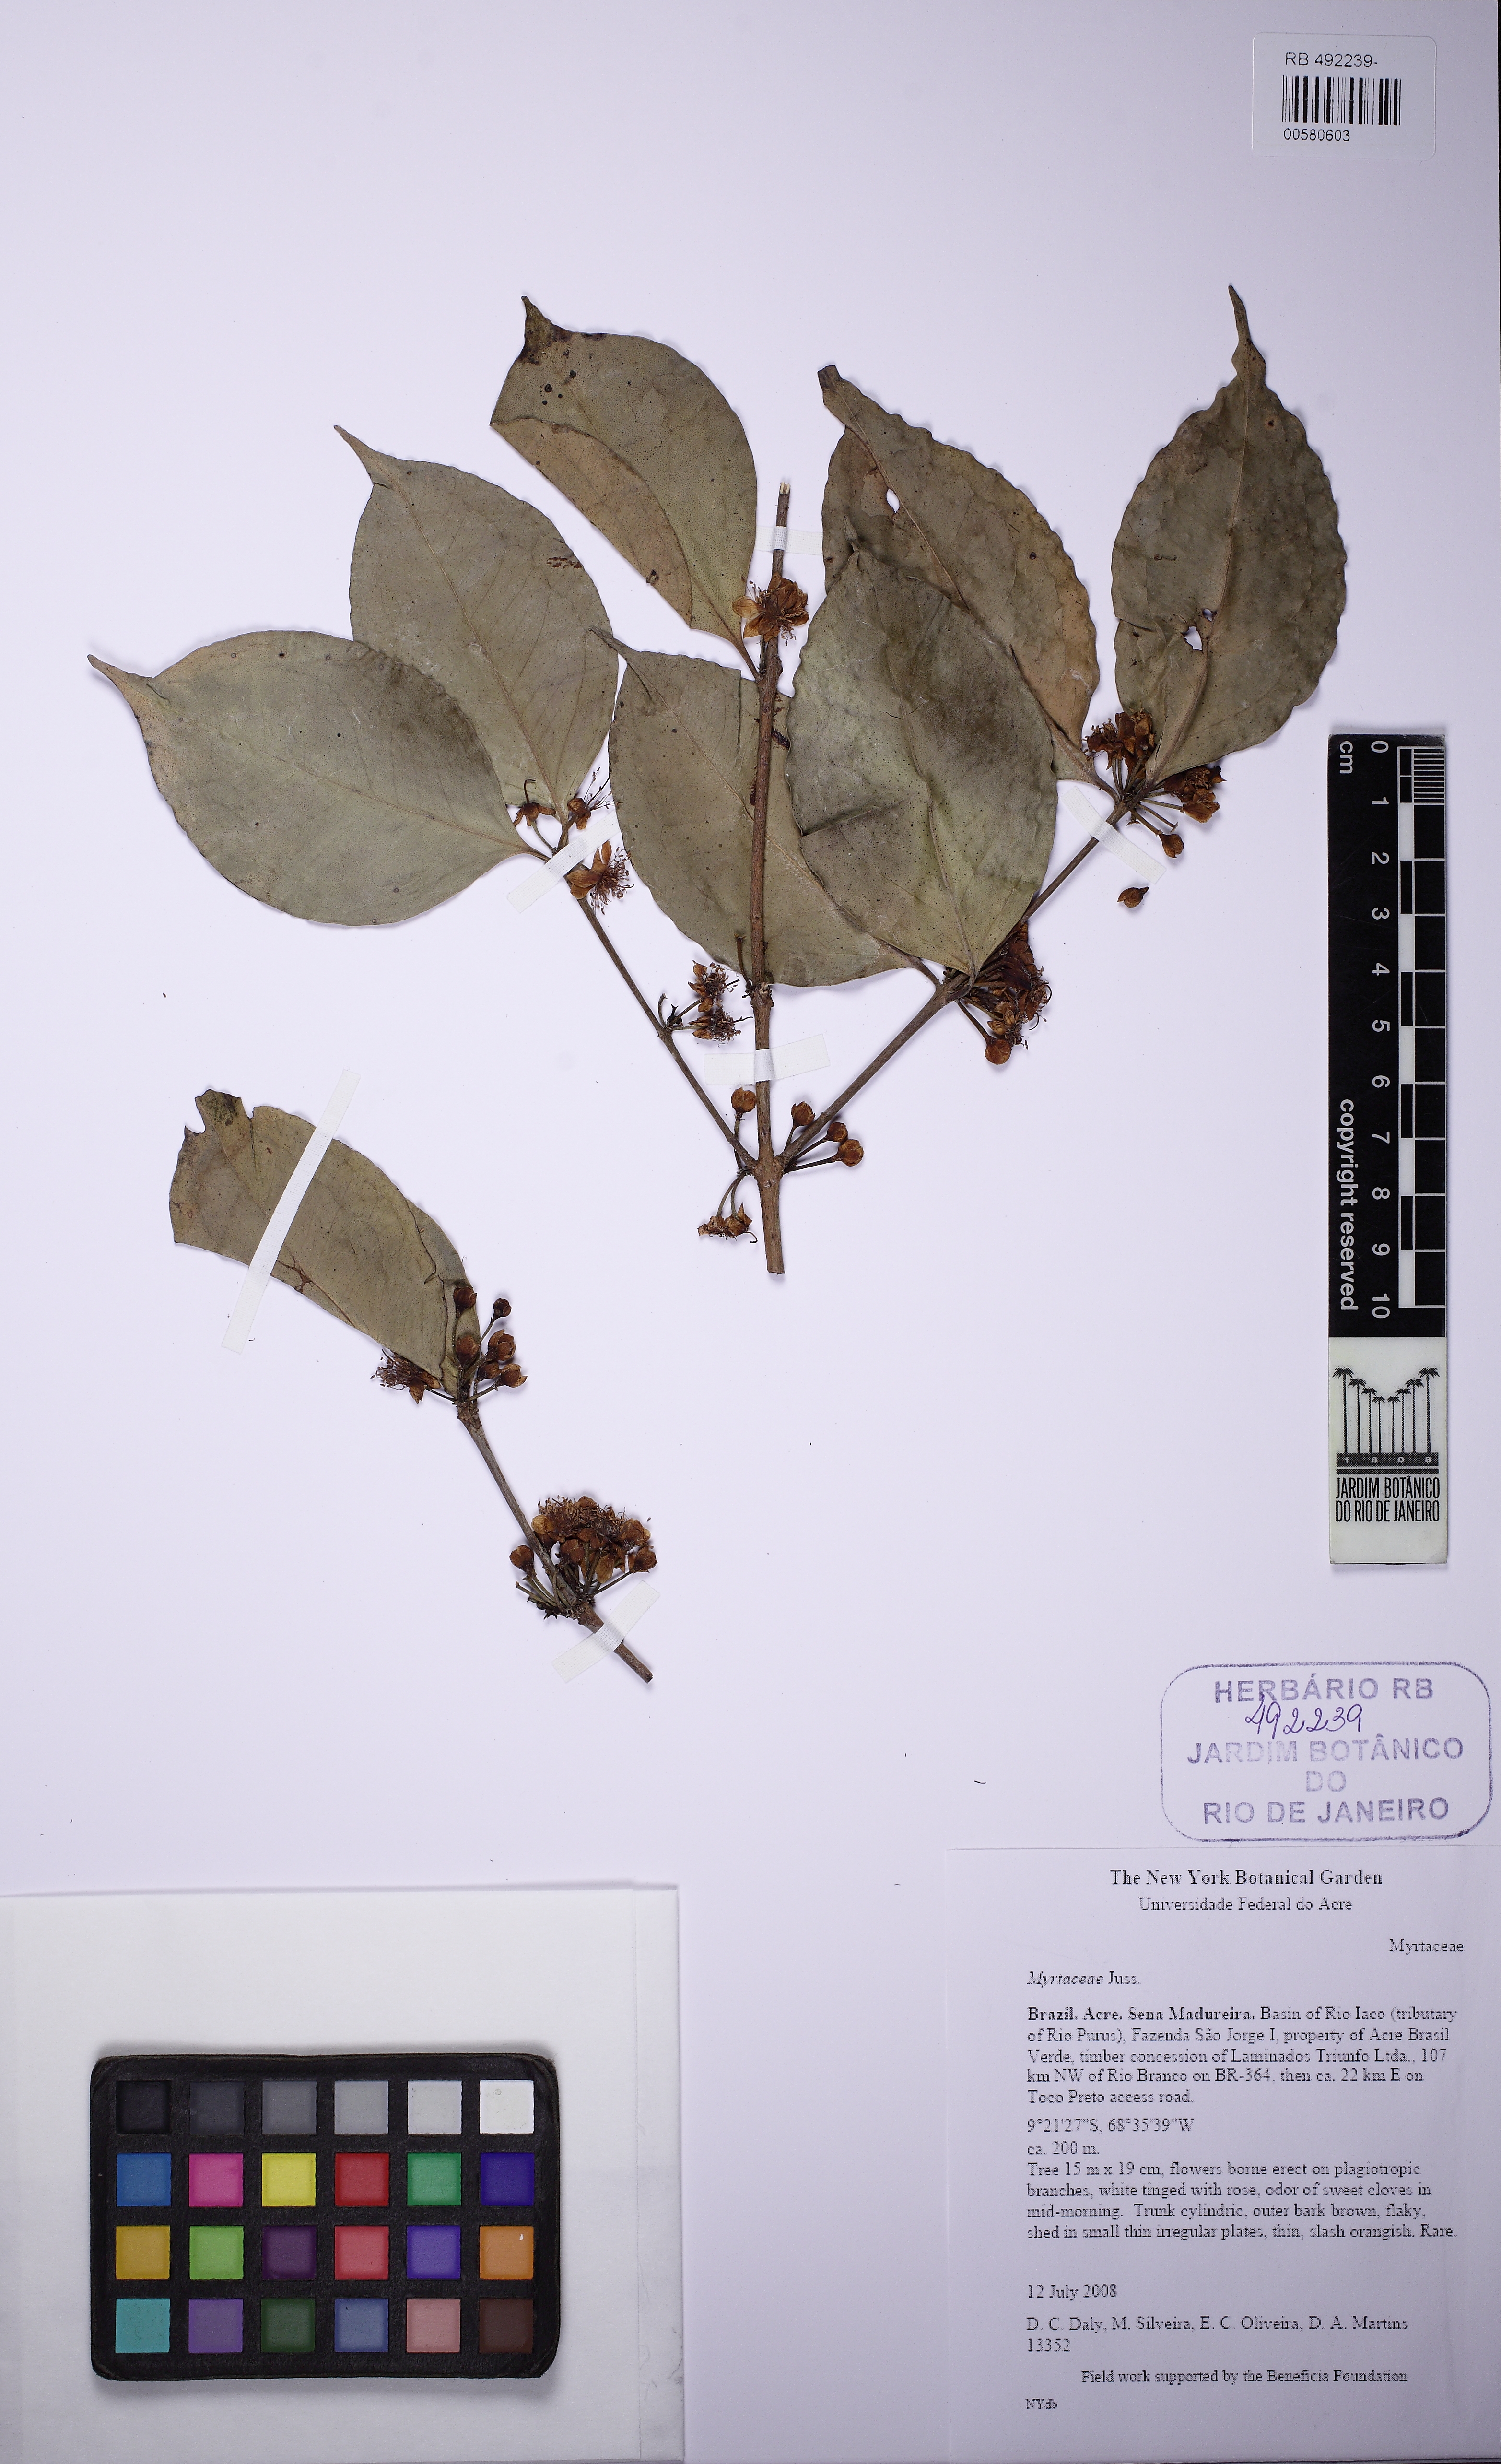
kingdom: Plantae
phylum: Tracheophyta
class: Magnoliopsida
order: Myrtales
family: Myrtaceae
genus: Eugenia
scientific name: Eugenia
